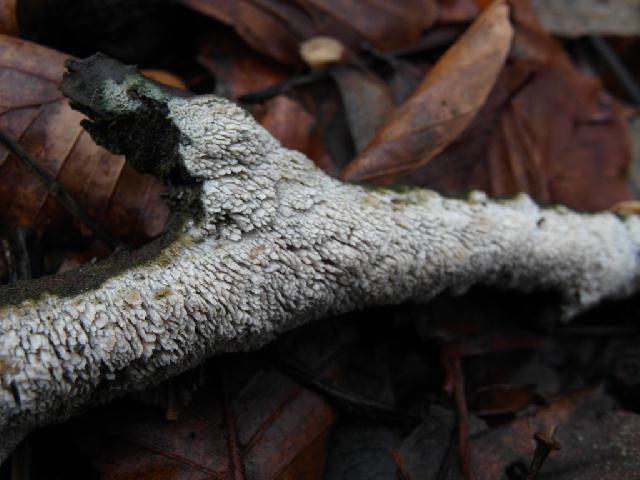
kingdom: Fungi
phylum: Basidiomycota
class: Agaricomycetes
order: Hymenochaetales
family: Schizoporaceae
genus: Schizopora
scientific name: Schizopora paradoxa
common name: hvid tandsvamp
